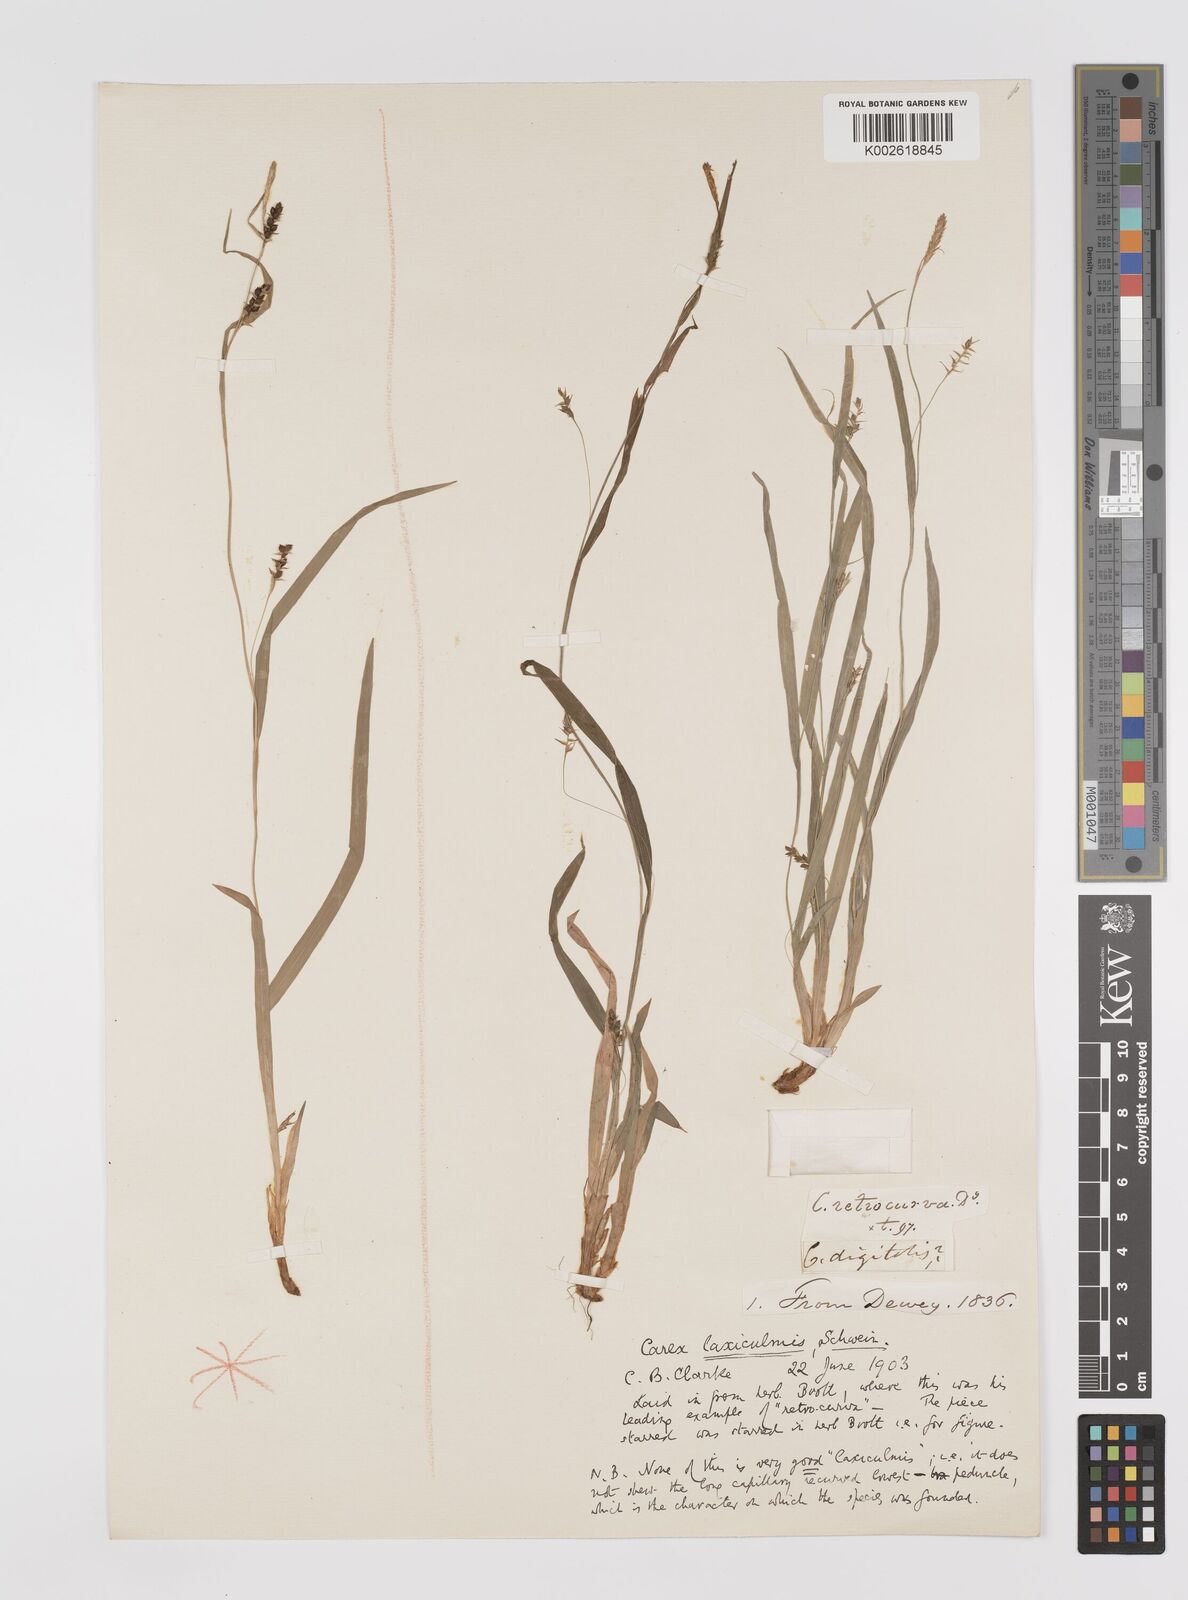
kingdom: Plantae
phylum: Tracheophyta
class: Liliopsida
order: Poales
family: Cyperaceae
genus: Carex
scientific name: Carex laxiculmis
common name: Spreading sedge
